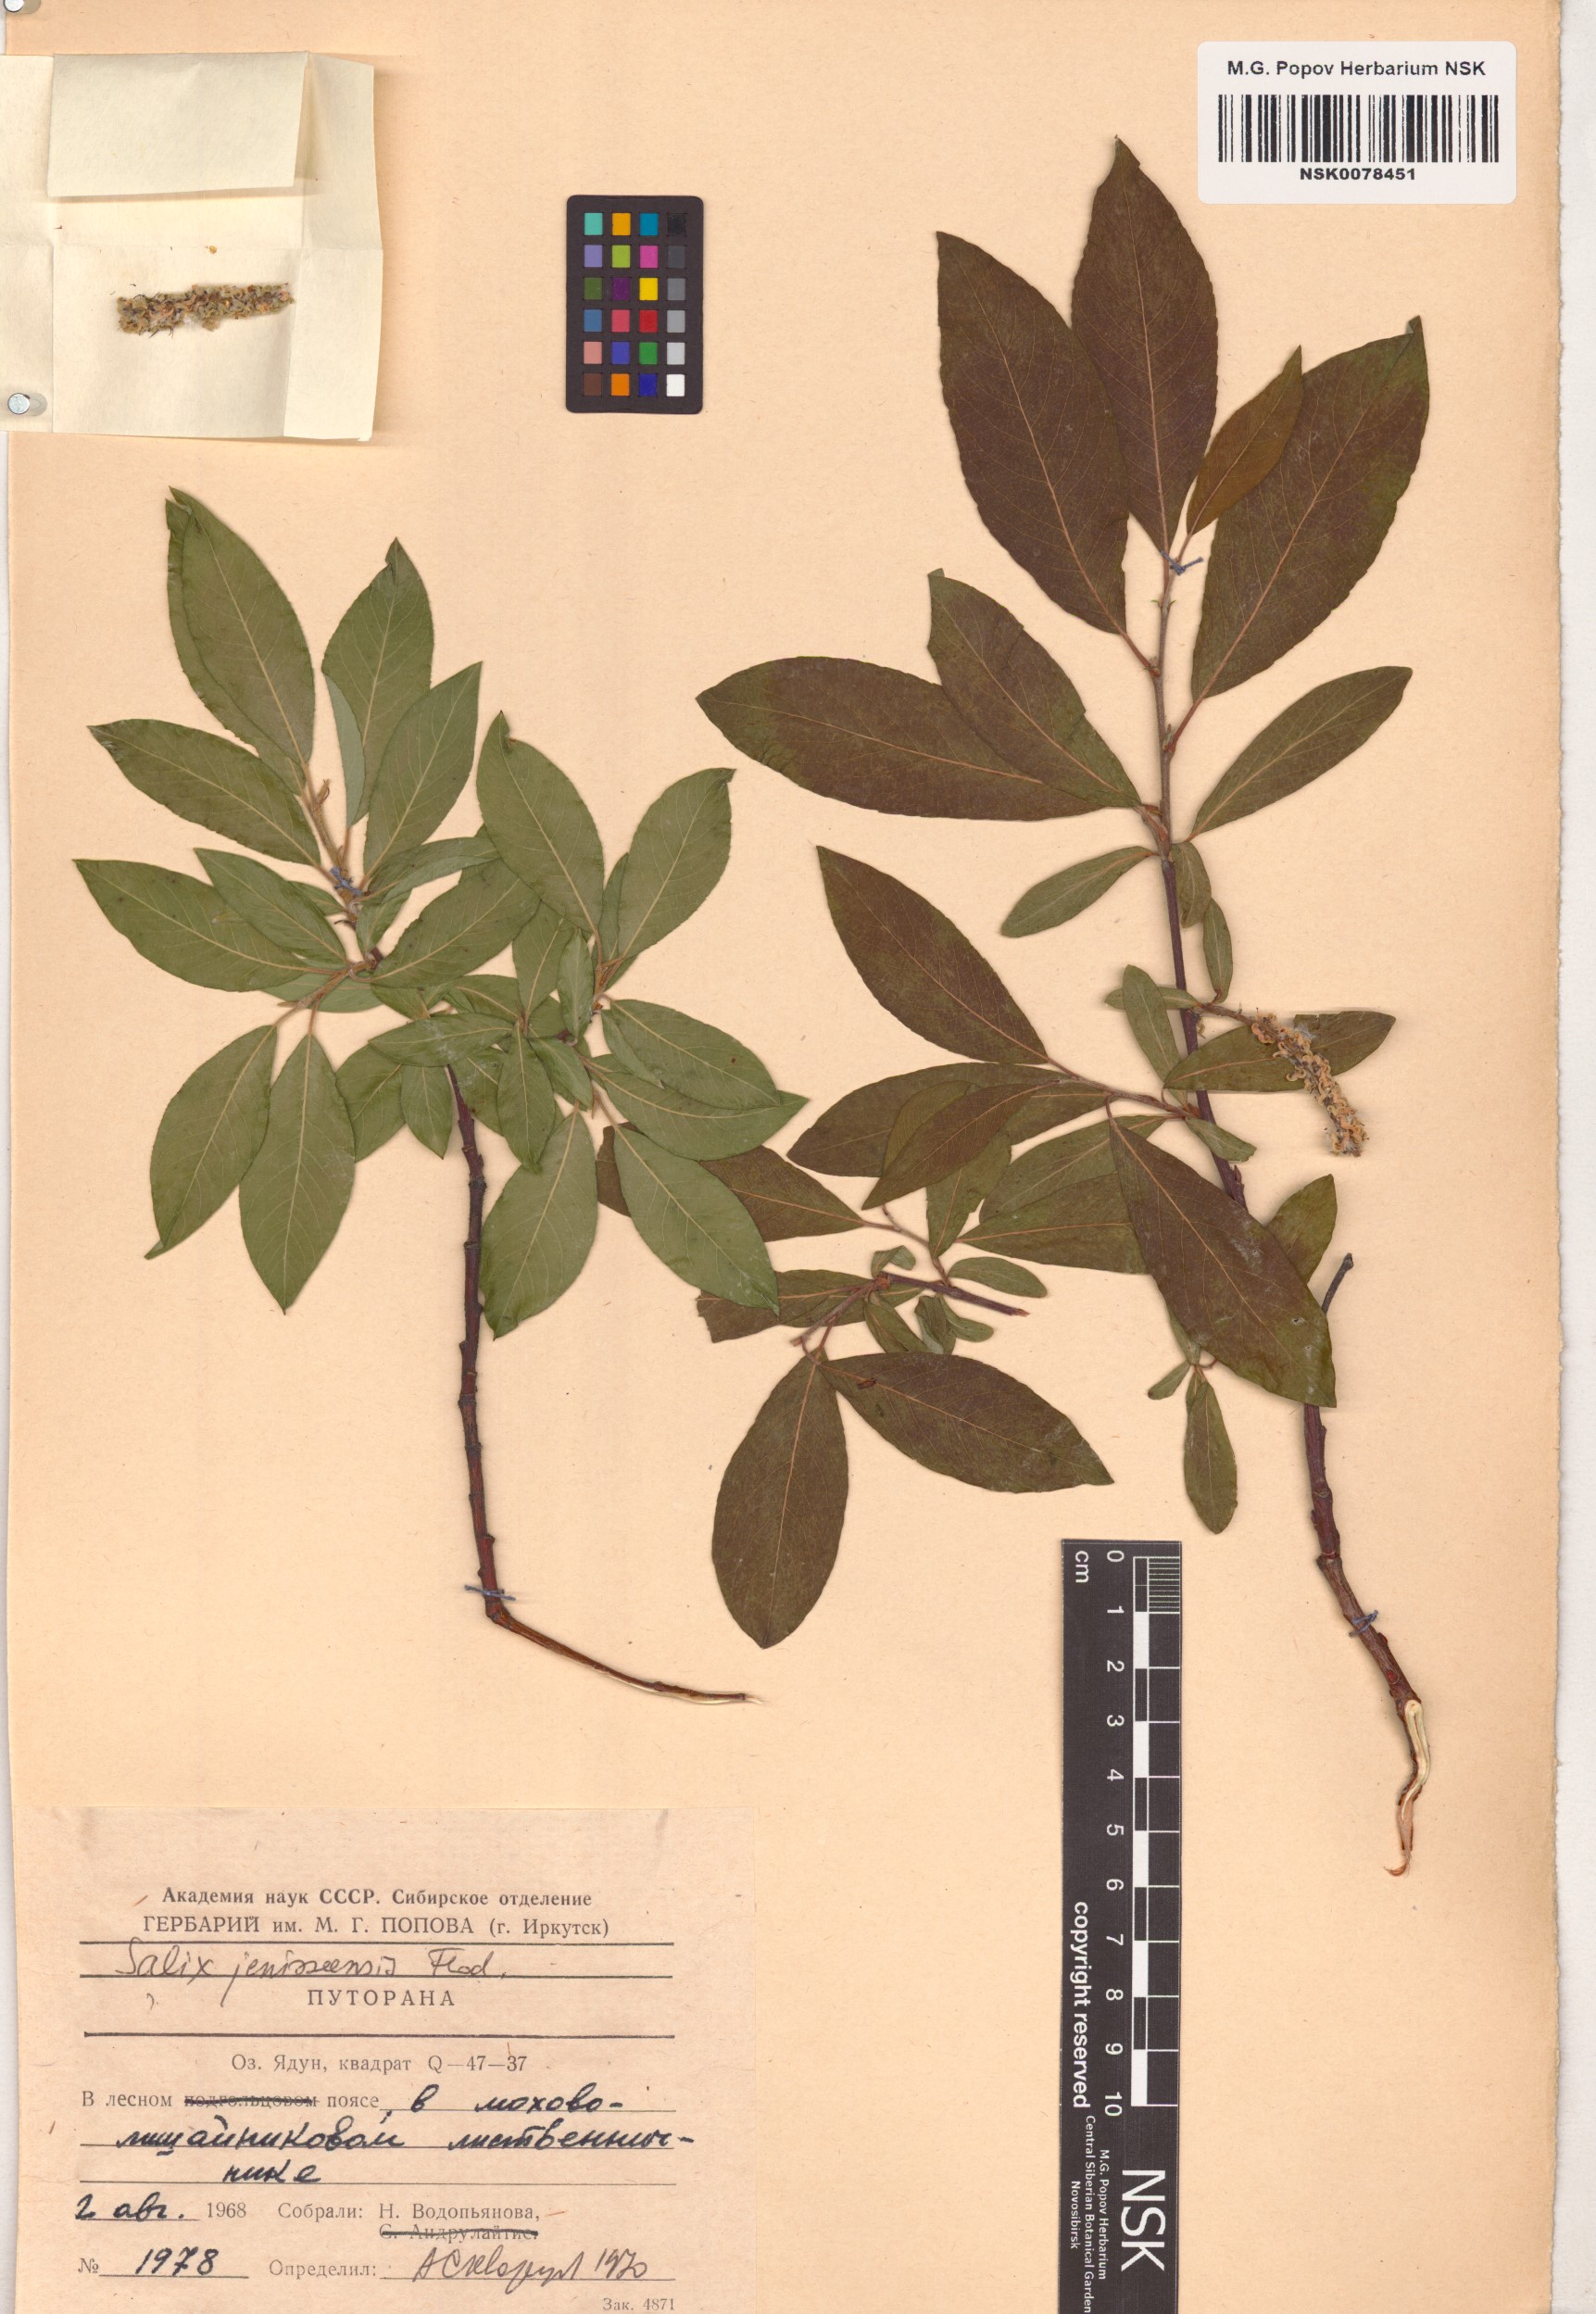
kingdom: Plantae
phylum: Tracheophyta
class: Magnoliopsida
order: Malpighiales
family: Salicaceae
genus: Salix
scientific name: Salix jenisseensis
